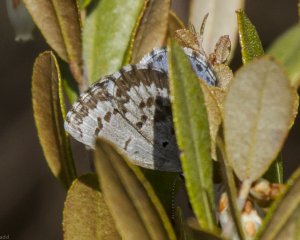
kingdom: Animalia
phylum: Arthropoda
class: Insecta
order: Lepidoptera
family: Lycaenidae
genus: Celastrina
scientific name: Celastrina lucia
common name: Northern Spring Azure
